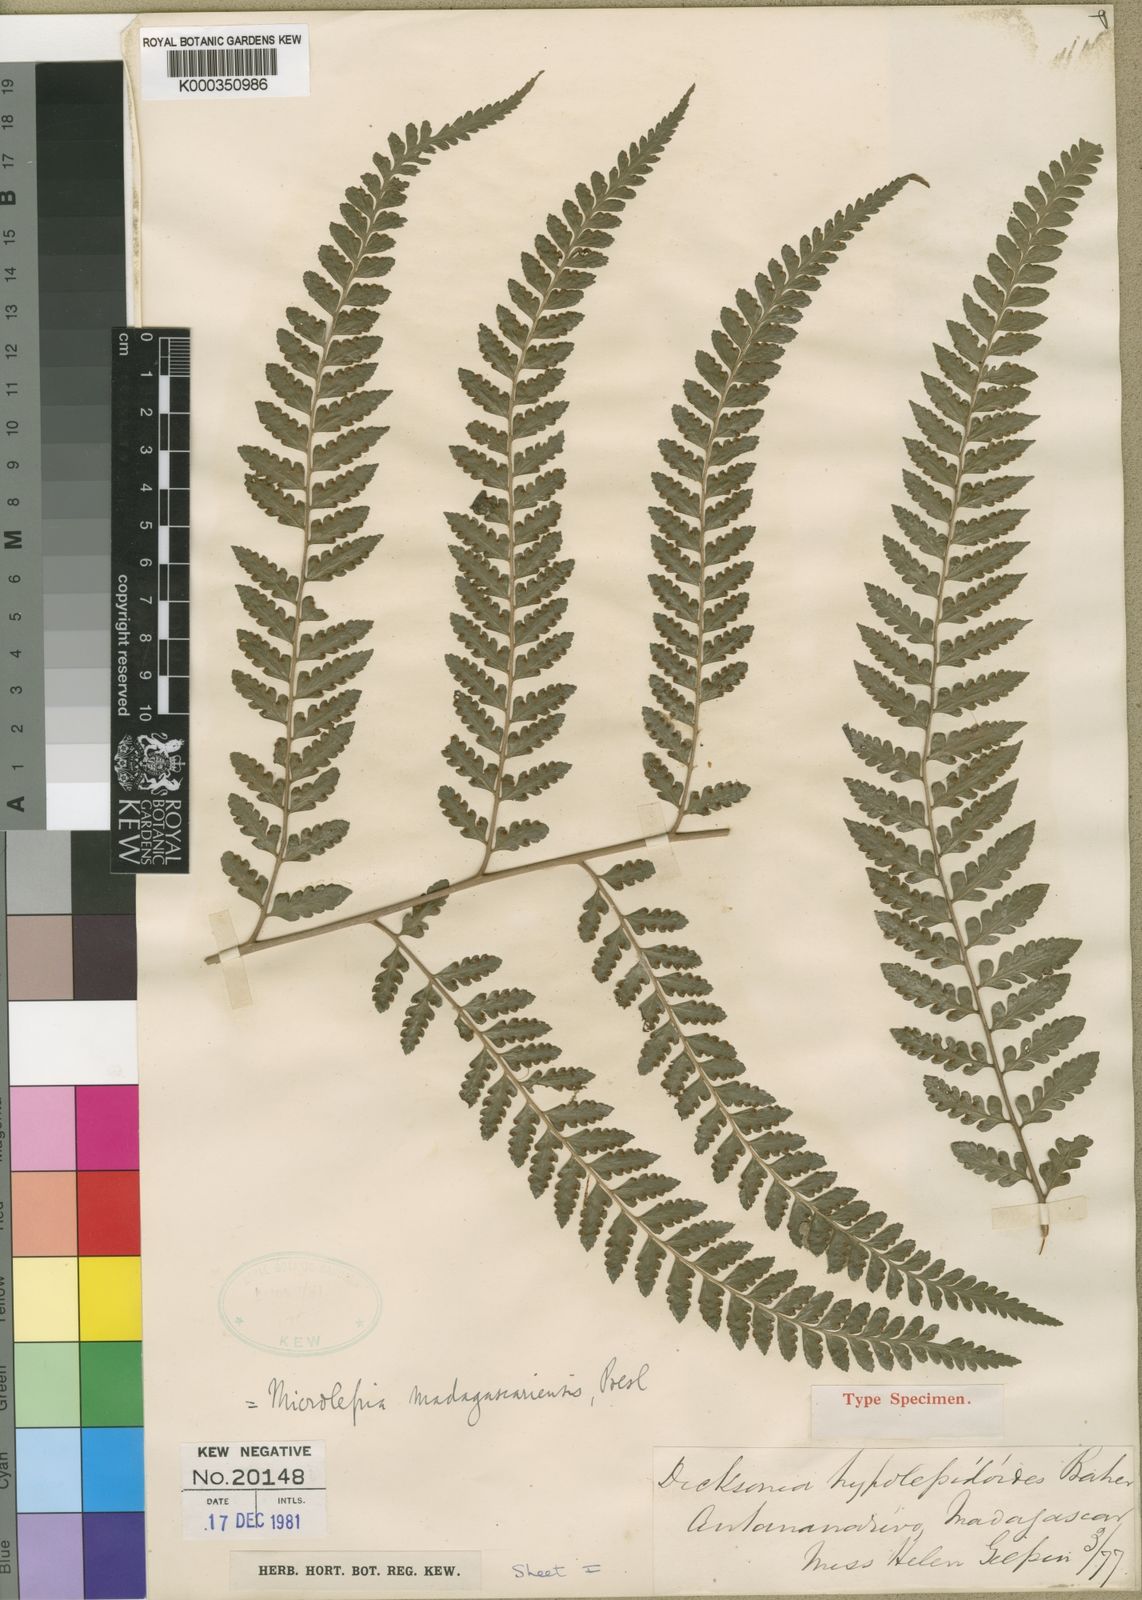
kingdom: Plantae
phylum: Tracheophyta
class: Polypodiopsida
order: Polypodiales
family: Dennstaedtiaceae
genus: Dennstaedtia
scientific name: Dennstaedtia madagascariensis
